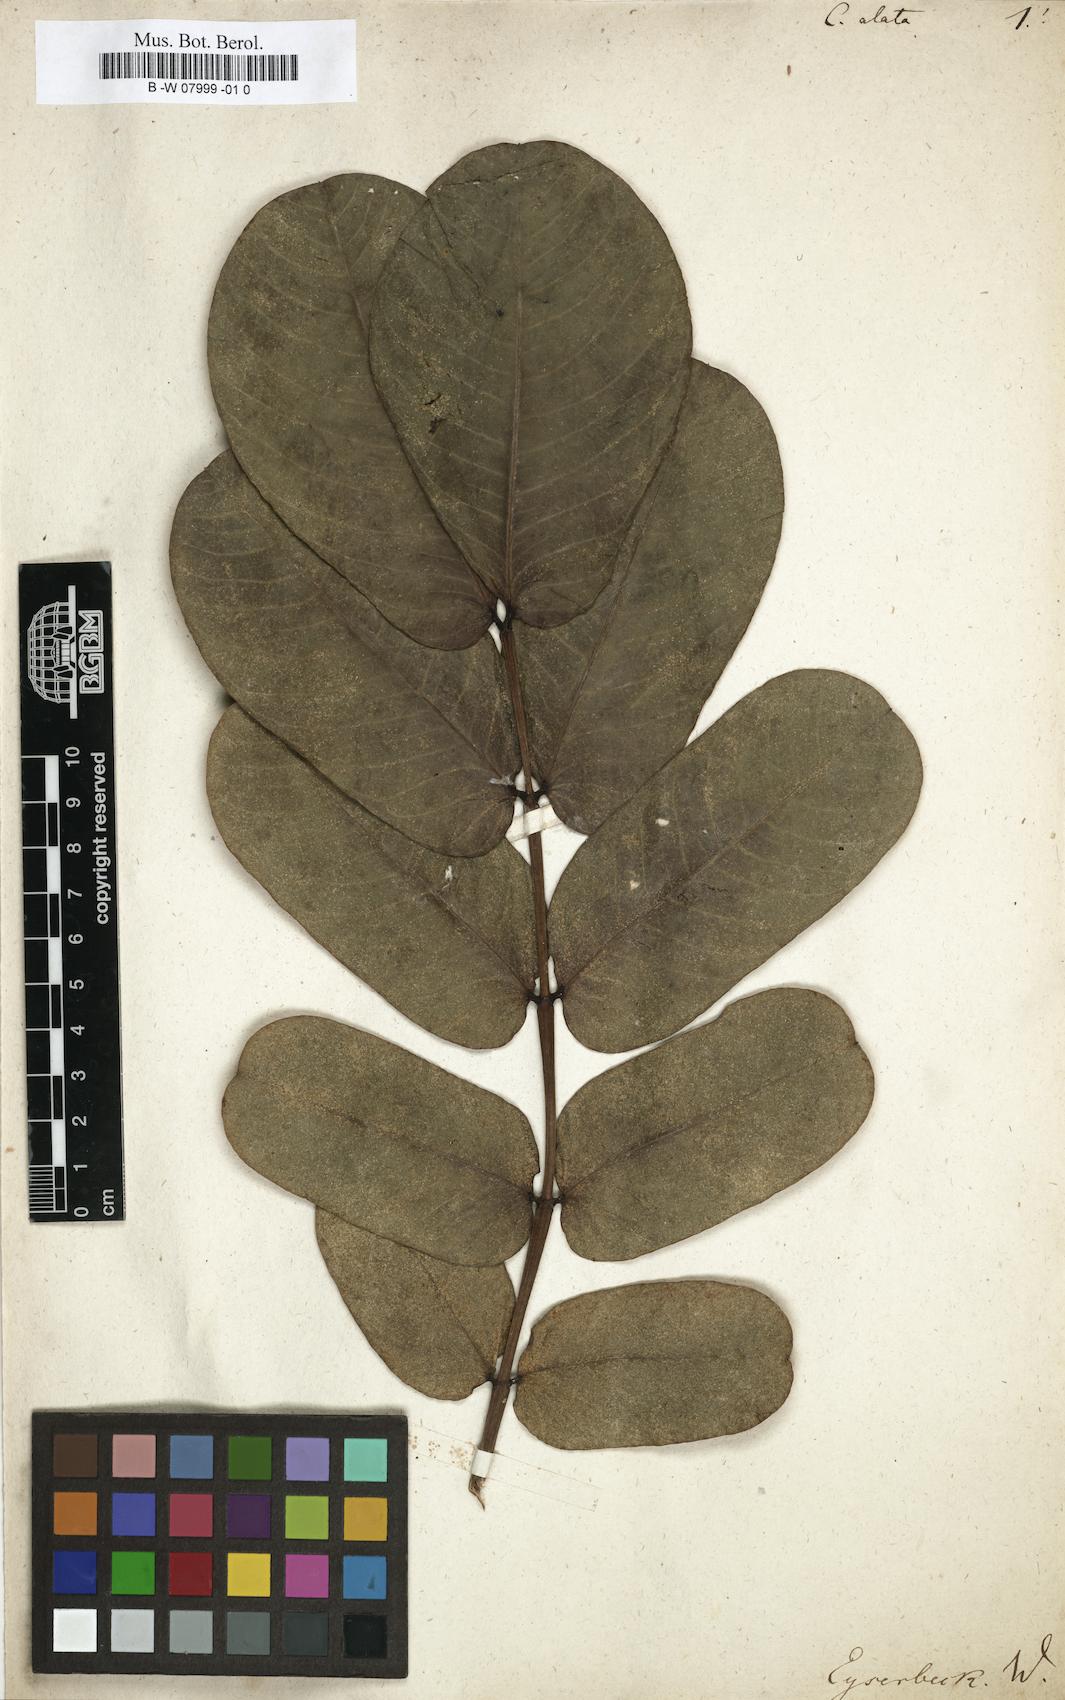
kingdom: Plantae
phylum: Tracheophyta
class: Magnoliopsida
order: Fabales
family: Fabaceae
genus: Senna
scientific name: Senna alata
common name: Emperor's candlesticks
